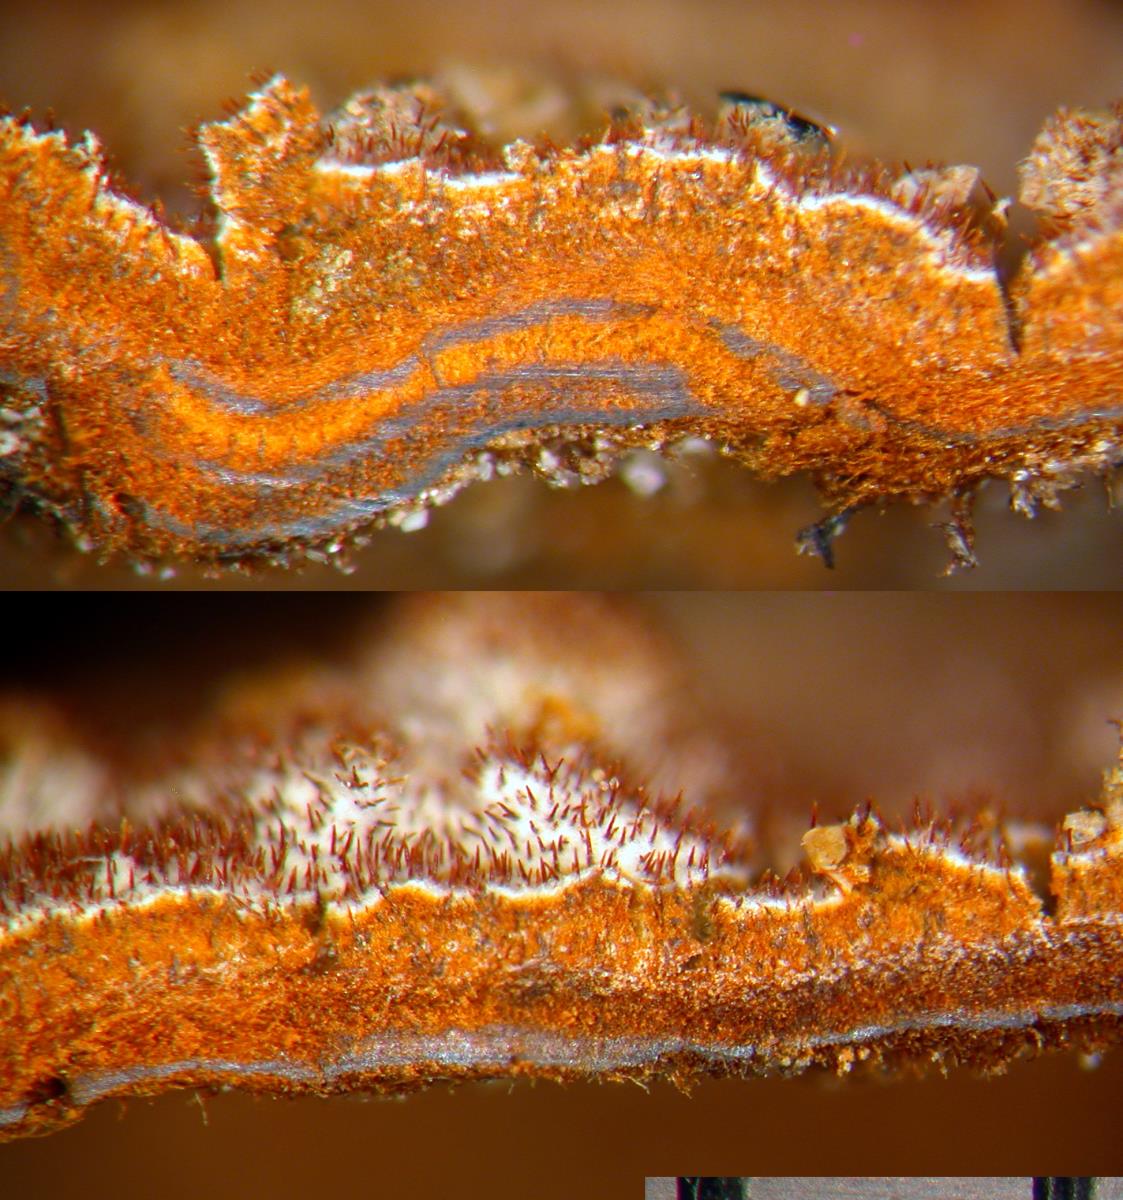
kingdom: Fungi
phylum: Basidiomycota
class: Agaricomycetes
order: Hymenochaetales
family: Hymenochaetaceae
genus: Hymenochaete
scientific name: Hymenochaete plurimaesetae
